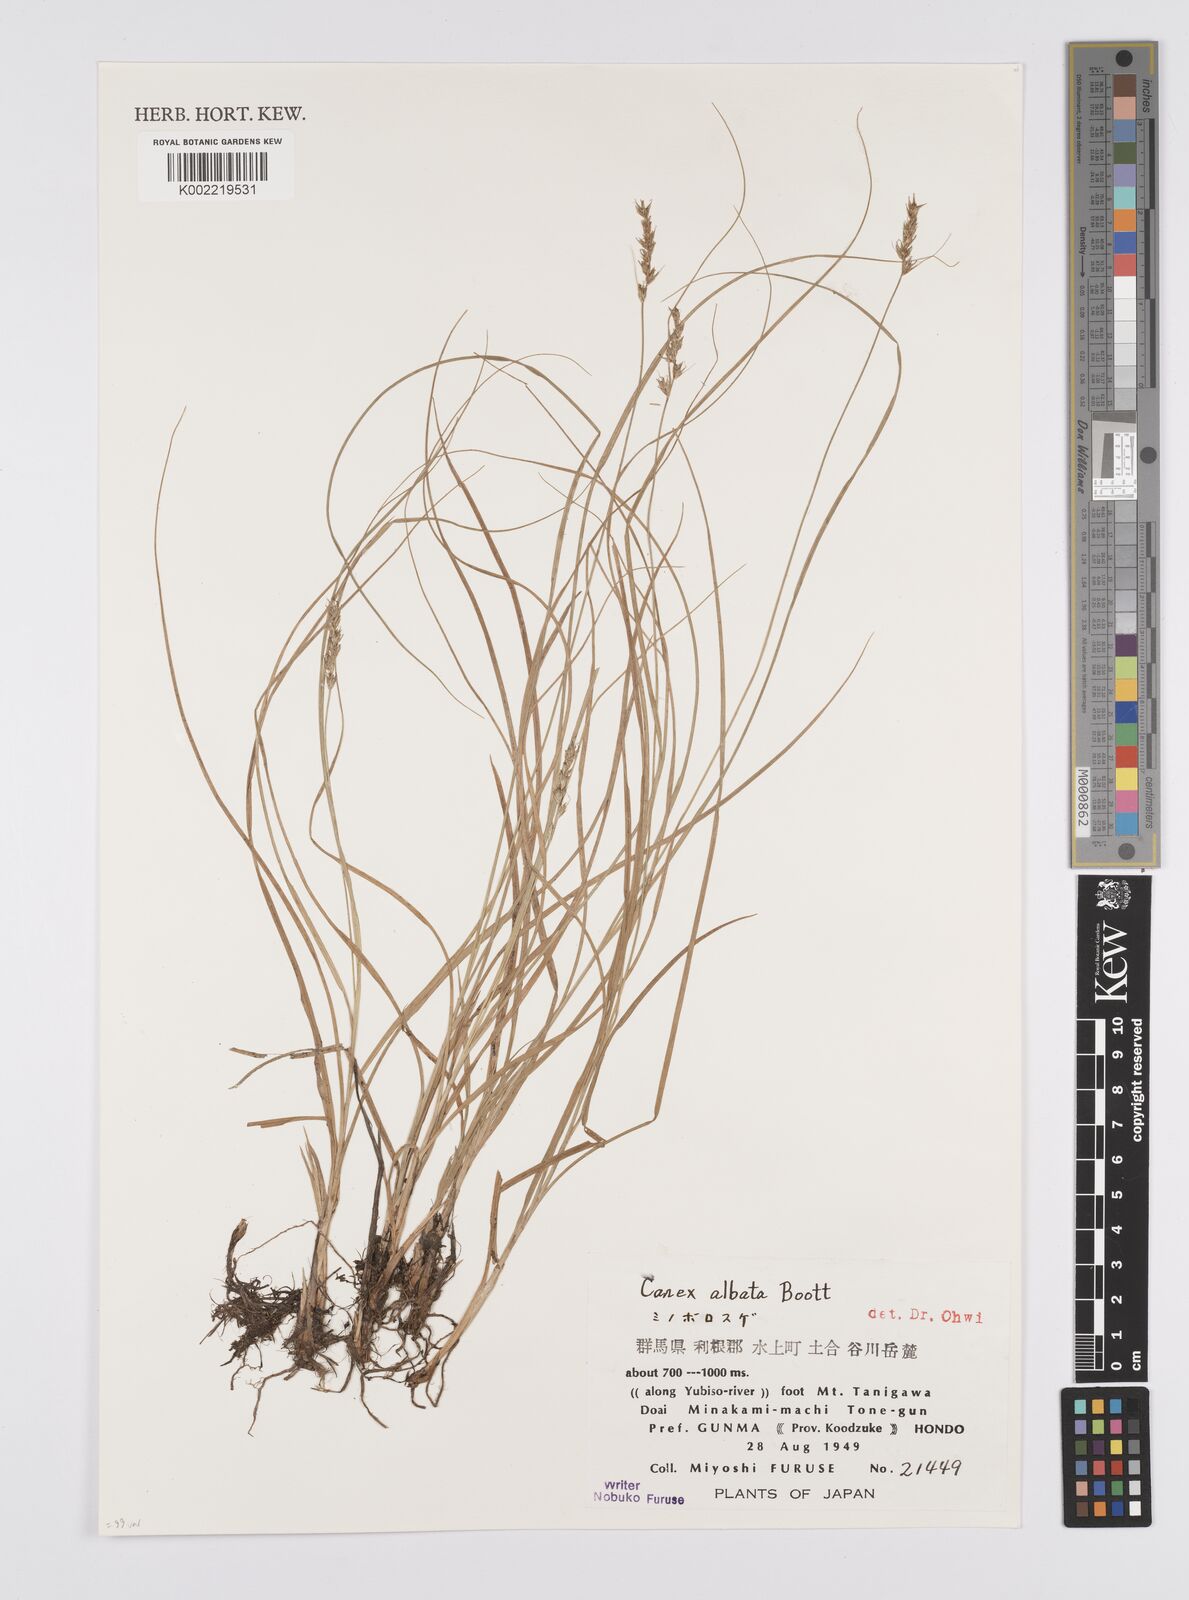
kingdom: Plantae
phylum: Tracheophyta
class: Liliopsida
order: Poales
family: Cyperaceae
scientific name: Cyperaceae
